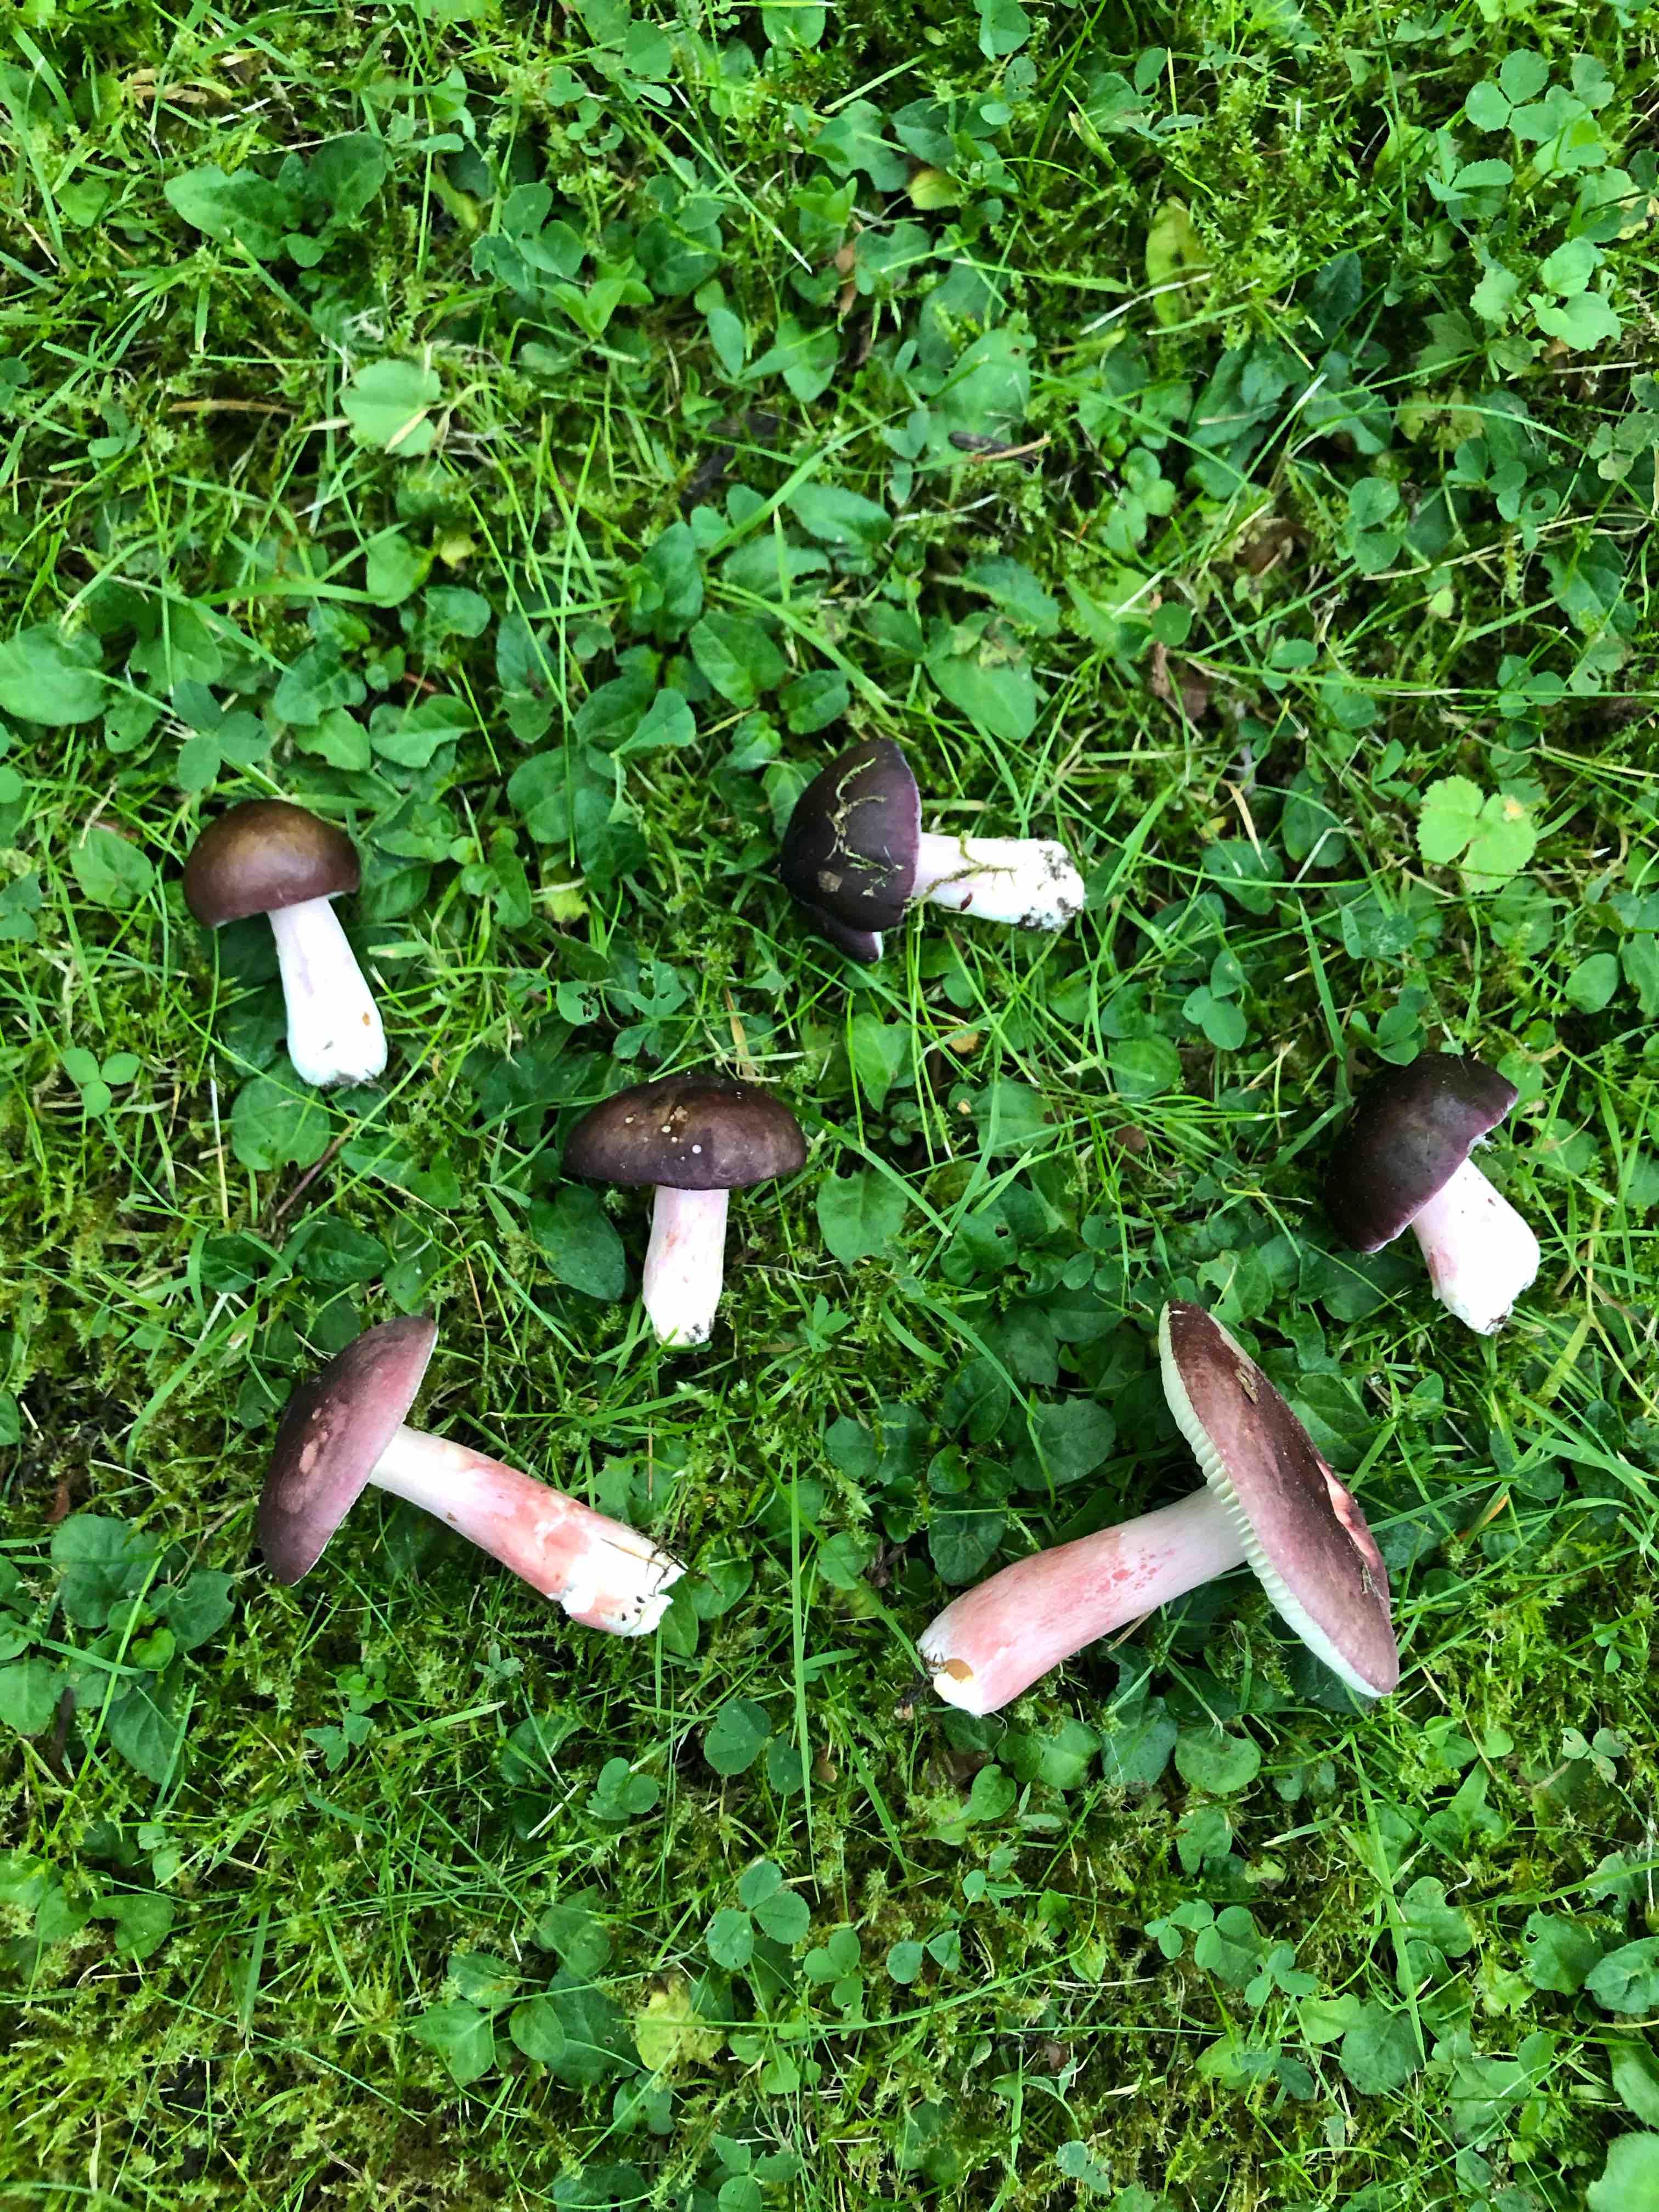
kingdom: Fungi
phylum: Basidiomycota
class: Agaricomycetes
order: Russulales
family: Russulaceae
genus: Russula
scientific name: Russula queletii
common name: Quélets skørhat
